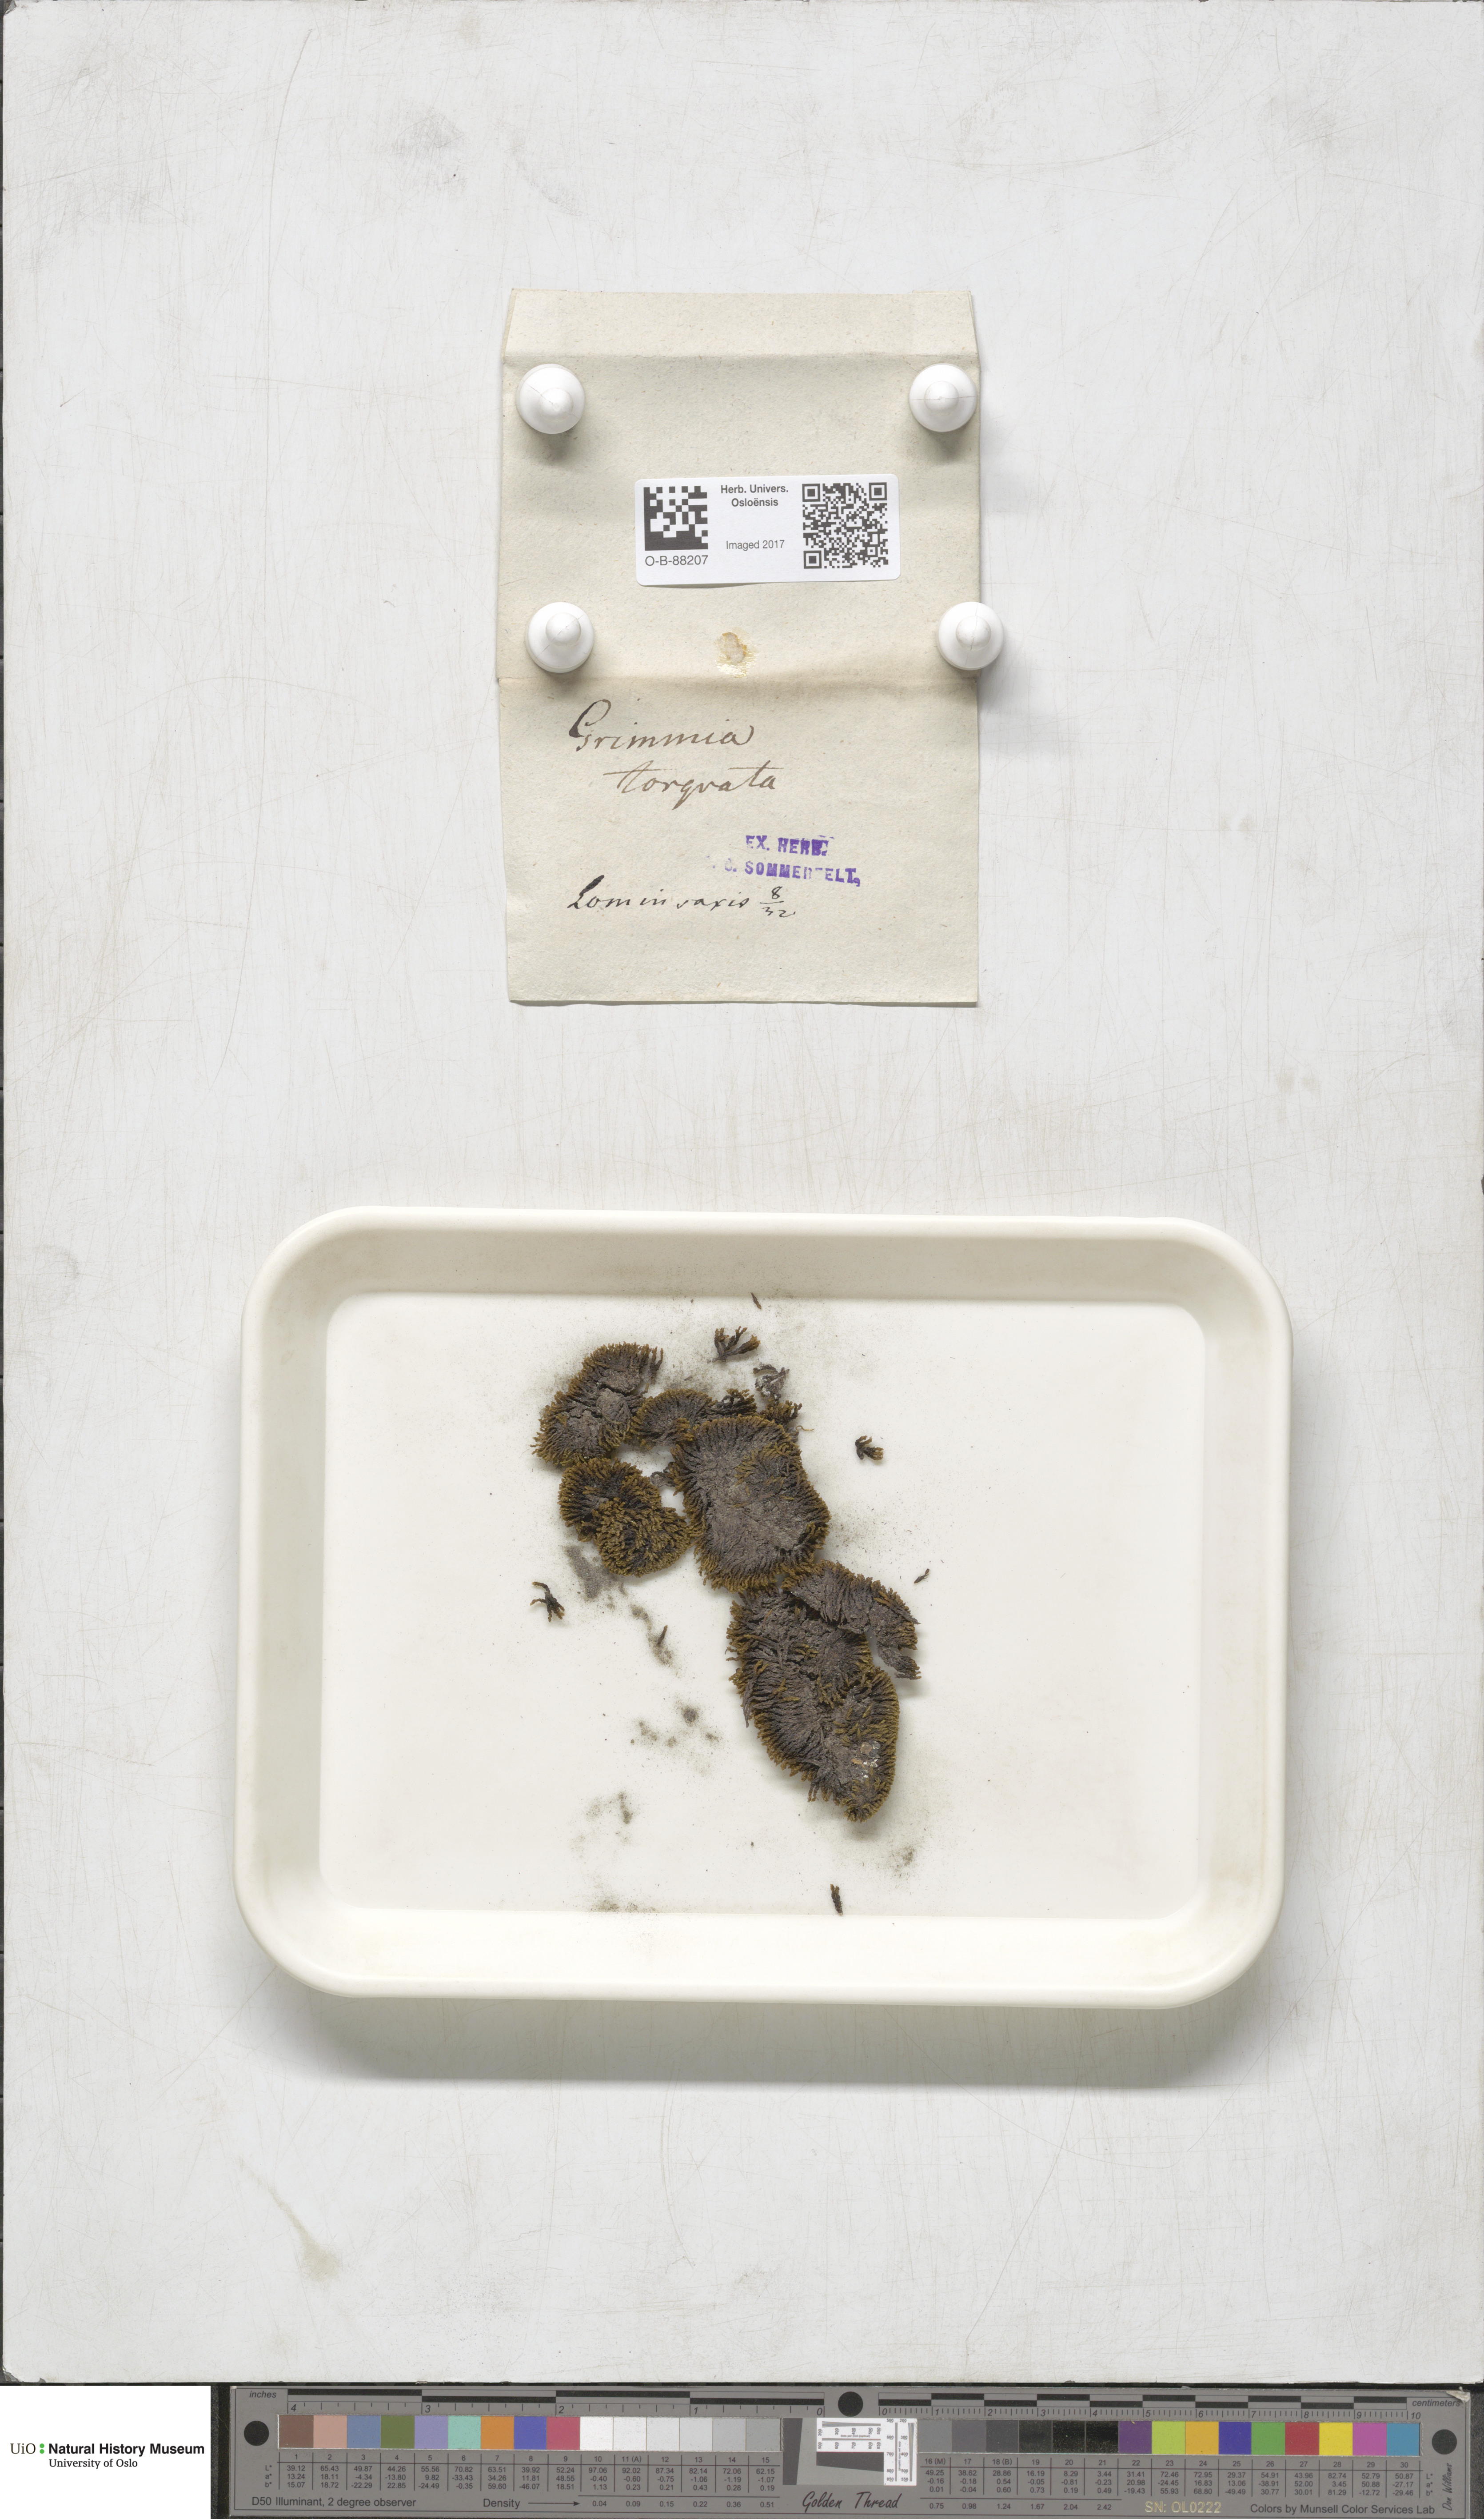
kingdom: Plantae
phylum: Bryophyta
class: Bryopsida
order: Grimmiales
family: Grimmiaceae
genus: Grimmia
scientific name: Grimmia torquata
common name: Twisted grimmia
